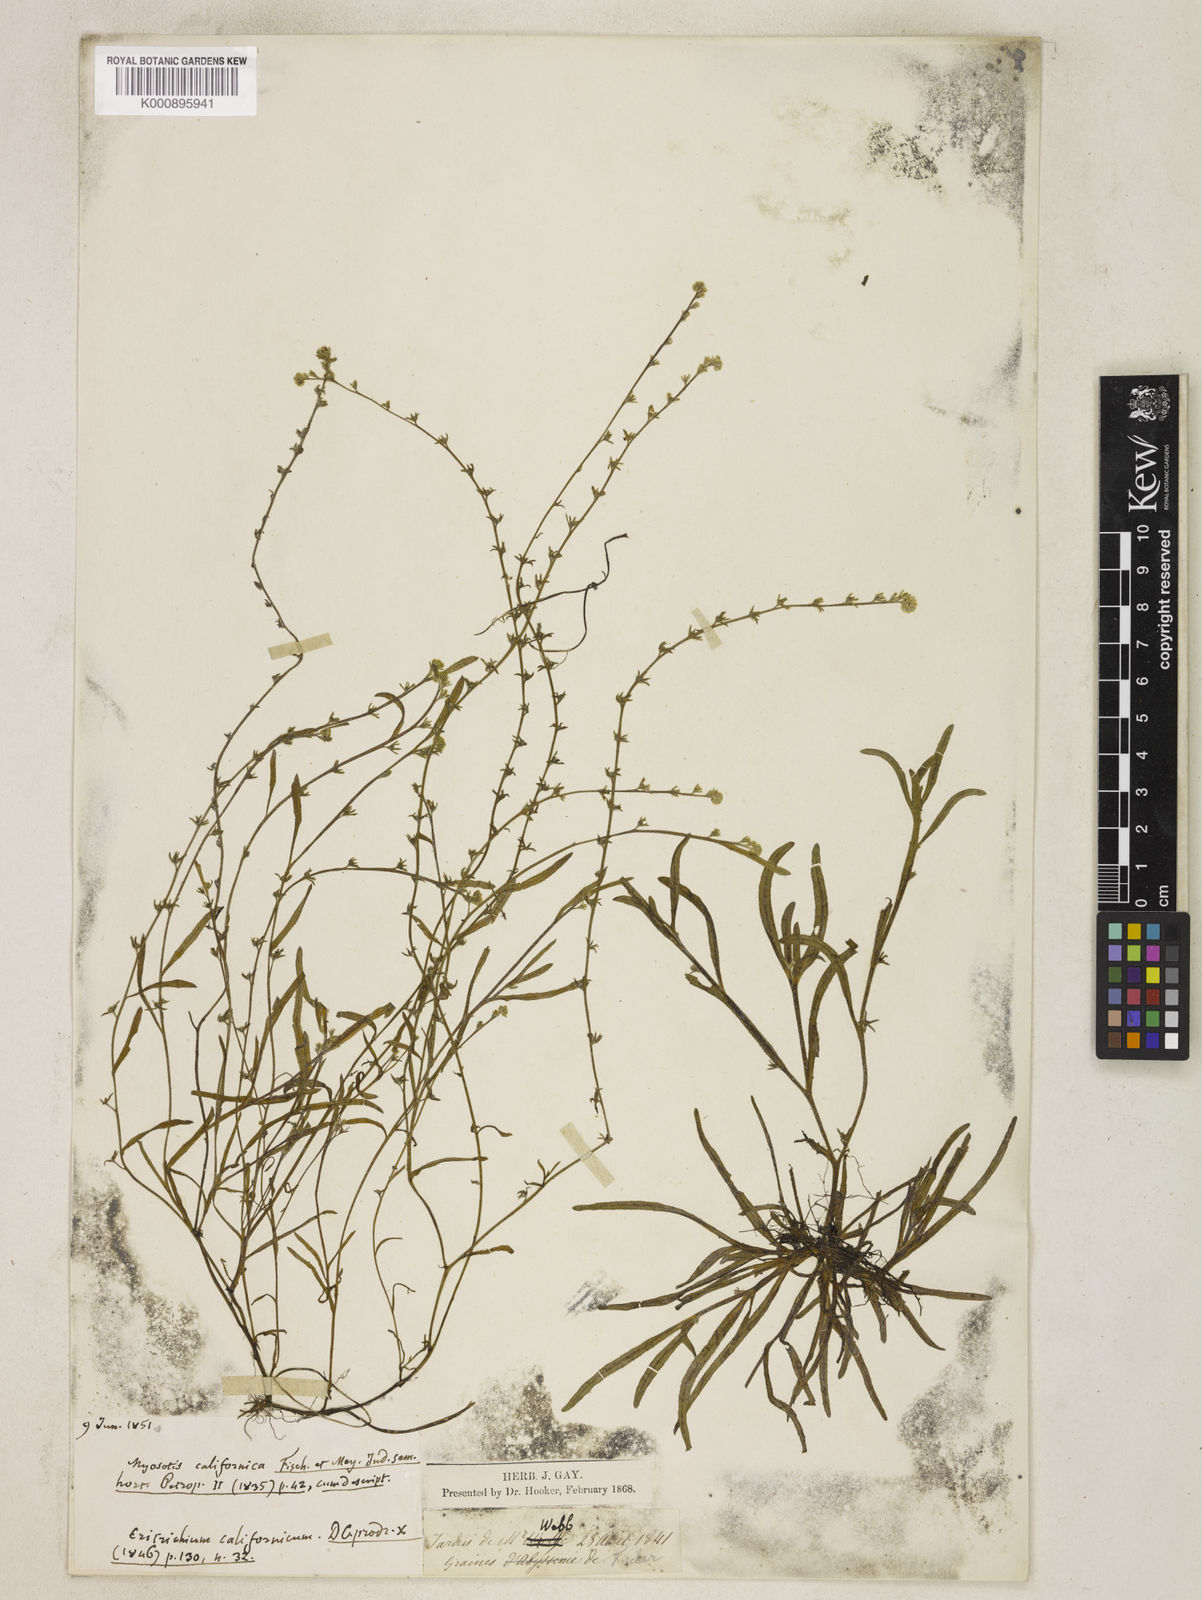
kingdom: Plantae
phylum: Tracheophyta
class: Magnoliopsida
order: Boraginales
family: Boraginaceae
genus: Plagiobothrys
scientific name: Plagiobothrys scouleri
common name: White forget-me-not
